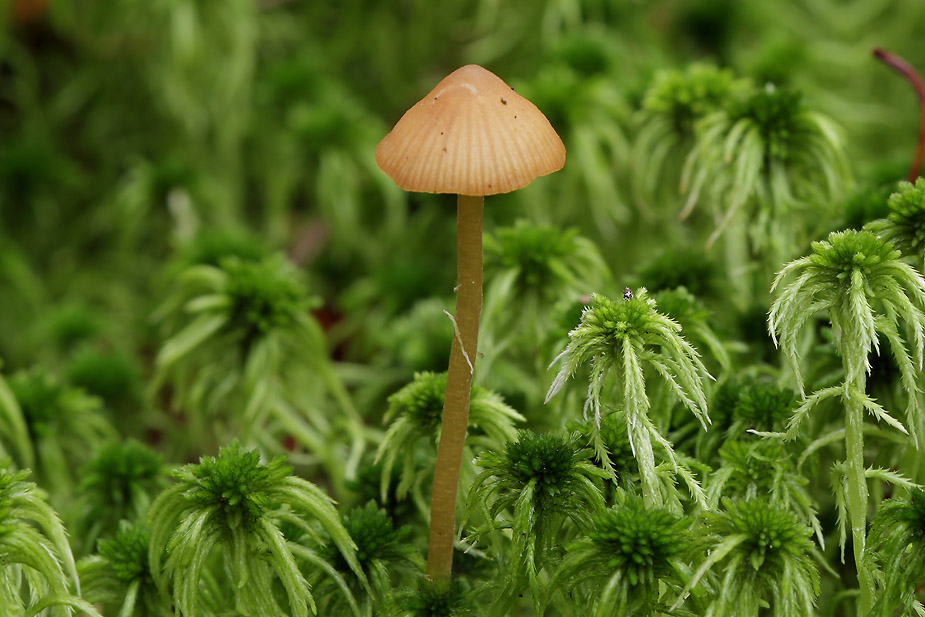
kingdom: Fungi
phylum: Basidiomycota
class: Agaricomycetes
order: Agaricales
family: Hymenogastraceae
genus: Galerina
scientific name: Galerina mairei
